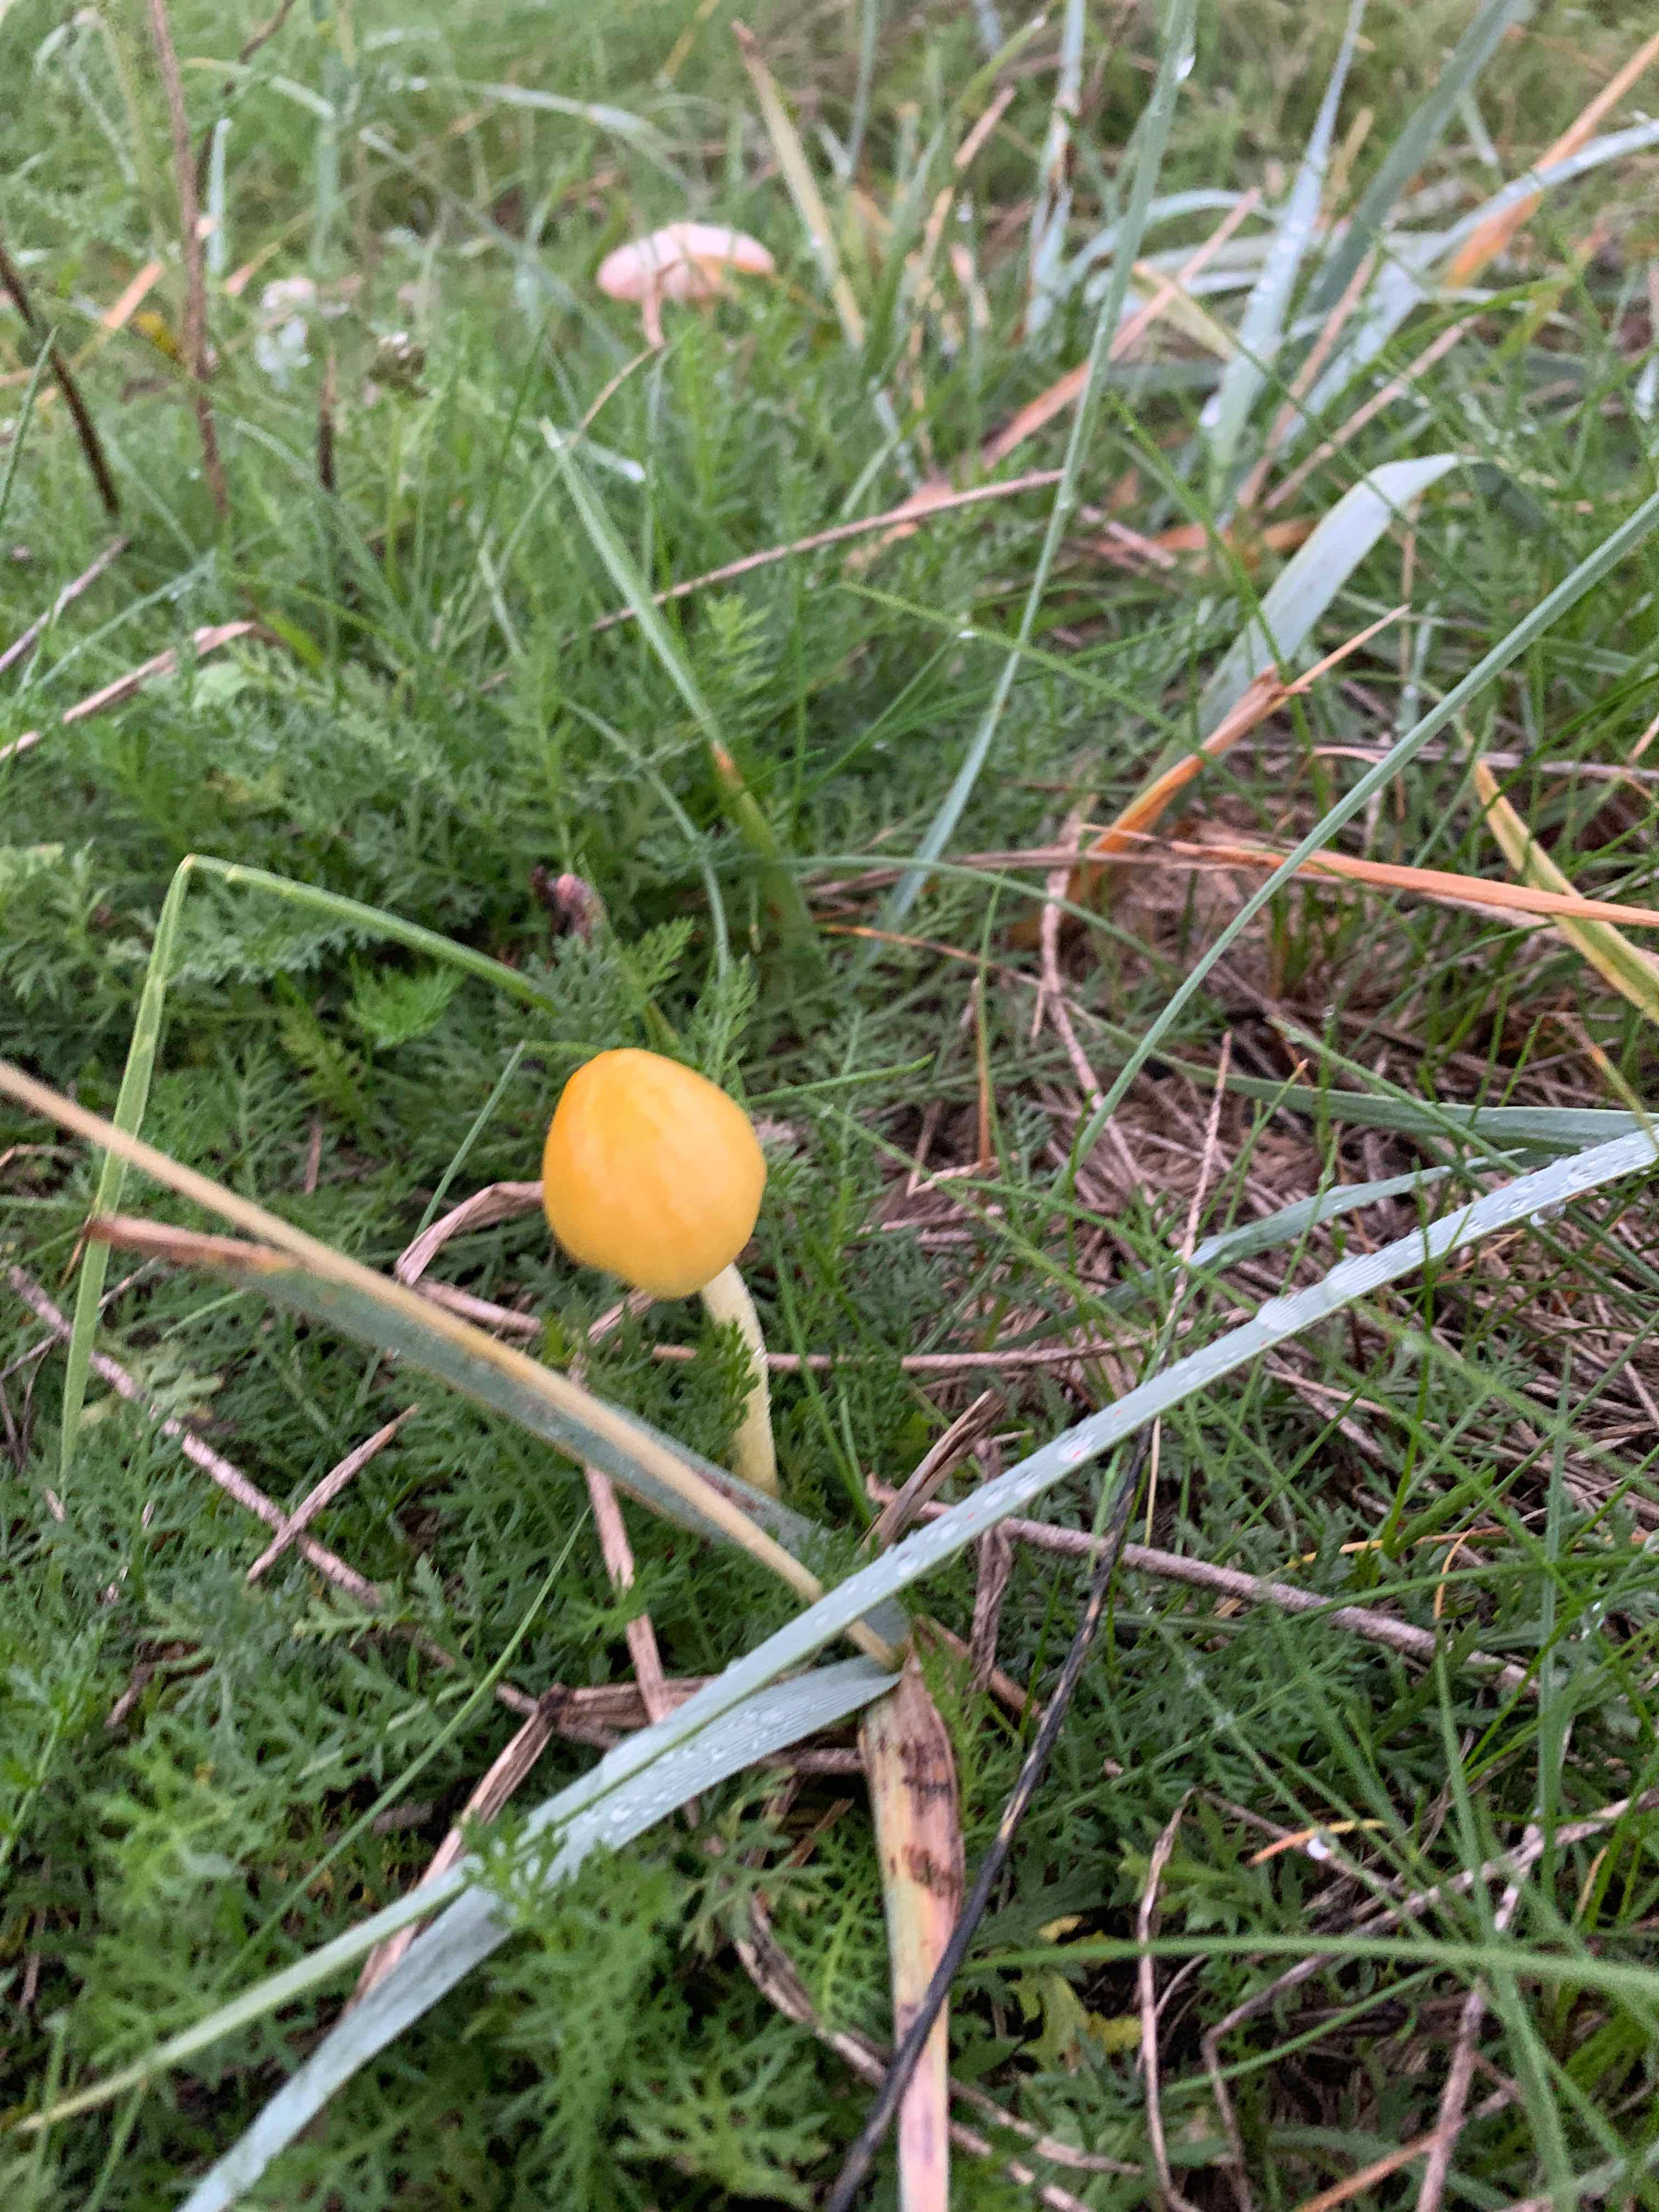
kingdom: Fungi
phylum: Basidiomycota
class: Agaricomycetes
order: Agaricales
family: Bolbitiaceae
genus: Bolbitius
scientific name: Bolbitius titubans
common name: almindelig gulhat
